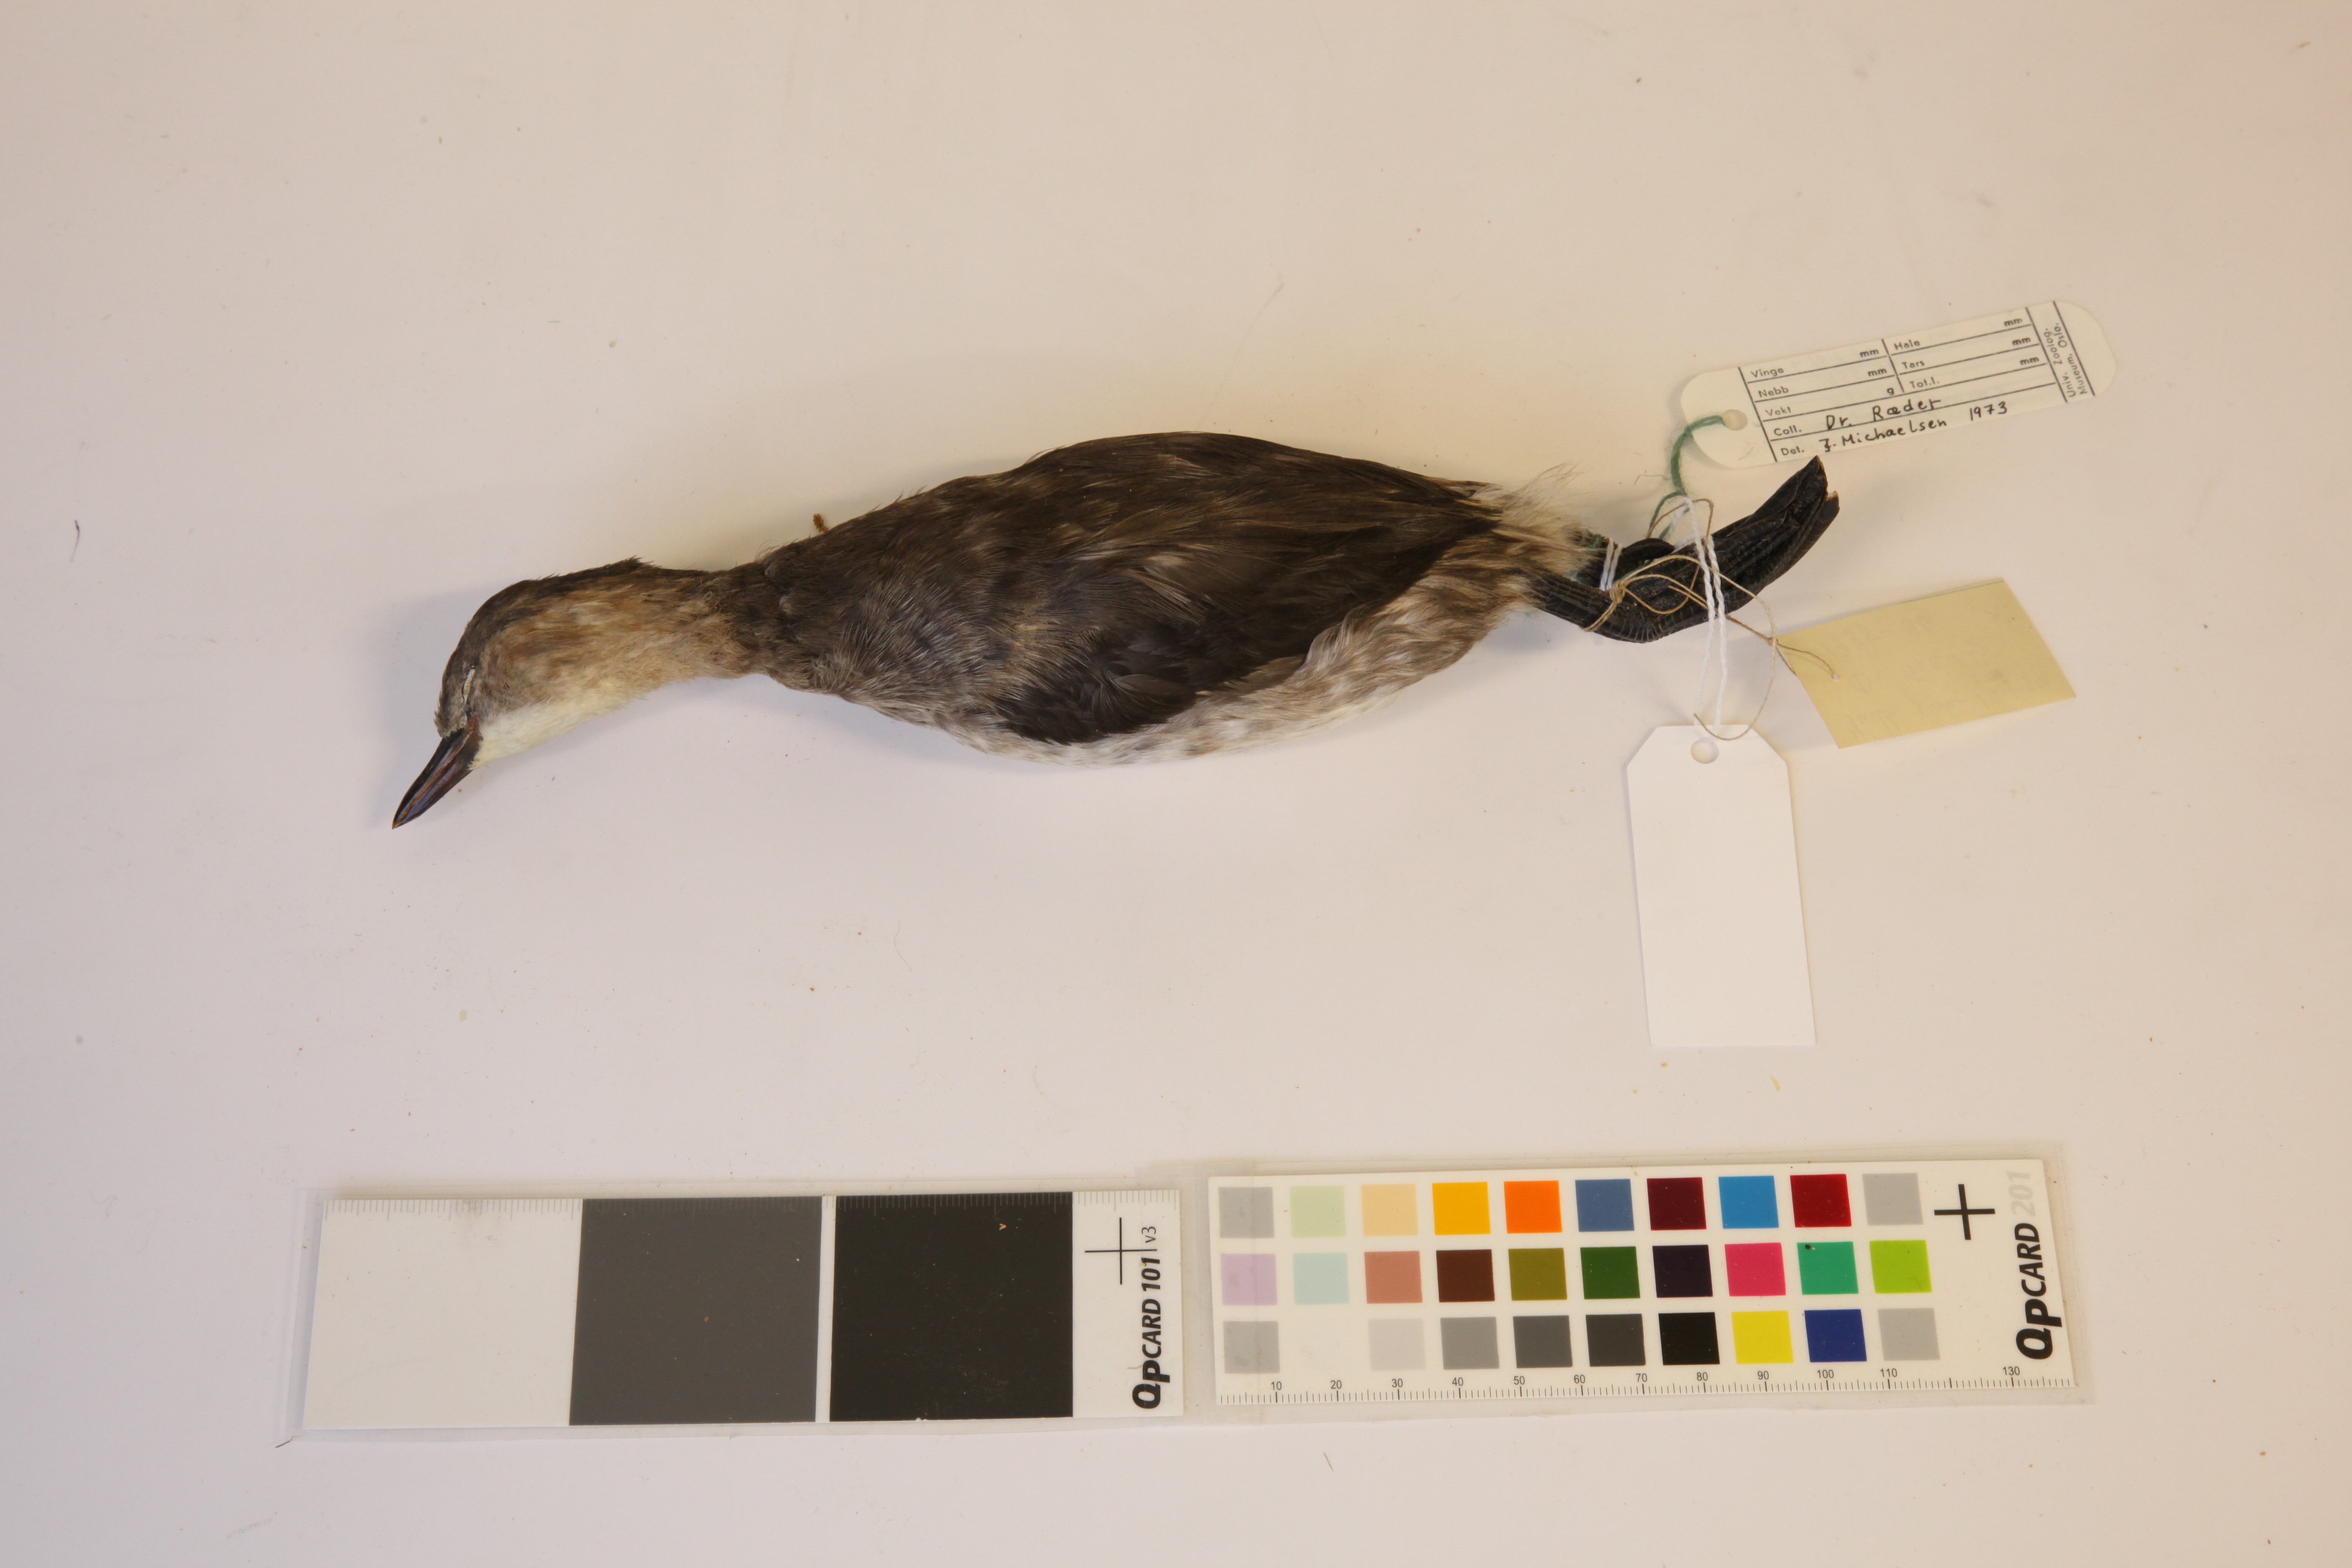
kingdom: Animalia
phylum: Chordata
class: Aves
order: Podicipediformes
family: Podicipedidae
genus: Tachybaptus
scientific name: Tachybaptus ruficollis
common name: Little grebe
